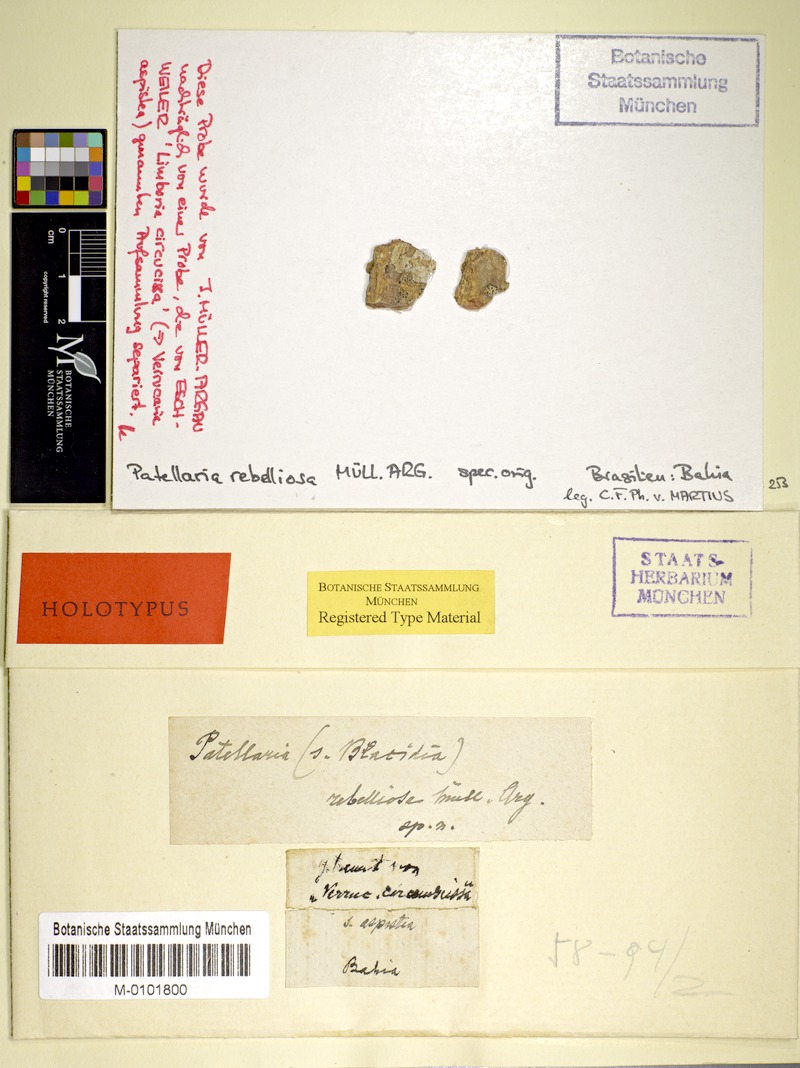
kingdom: Fungi
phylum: Ascomycota
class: Lecanoromycetes
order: Lecanorales
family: Ramalinaceae
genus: Bacidia
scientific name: Bacidia
